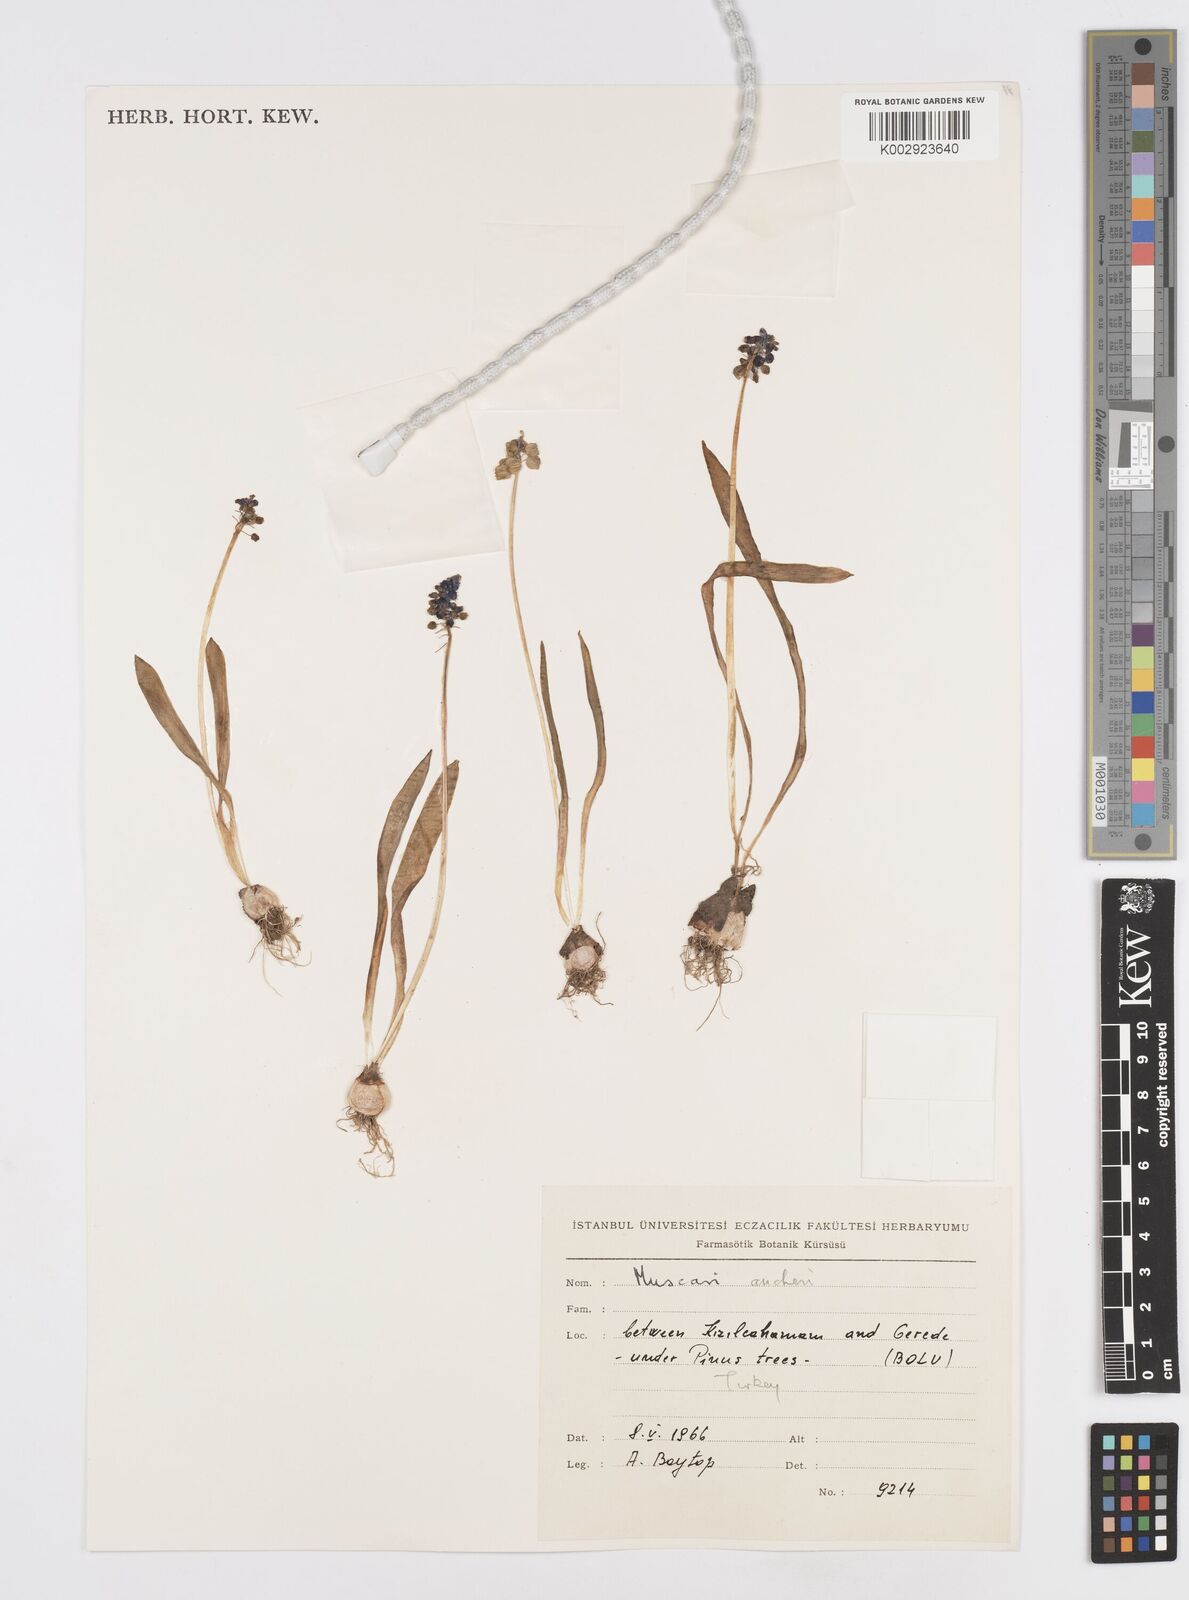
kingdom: Plantae
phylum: Tracheophyta
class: Liliopsida
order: Asparagales
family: Asparagaceae
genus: Muscari
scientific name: Muscari aucheri
